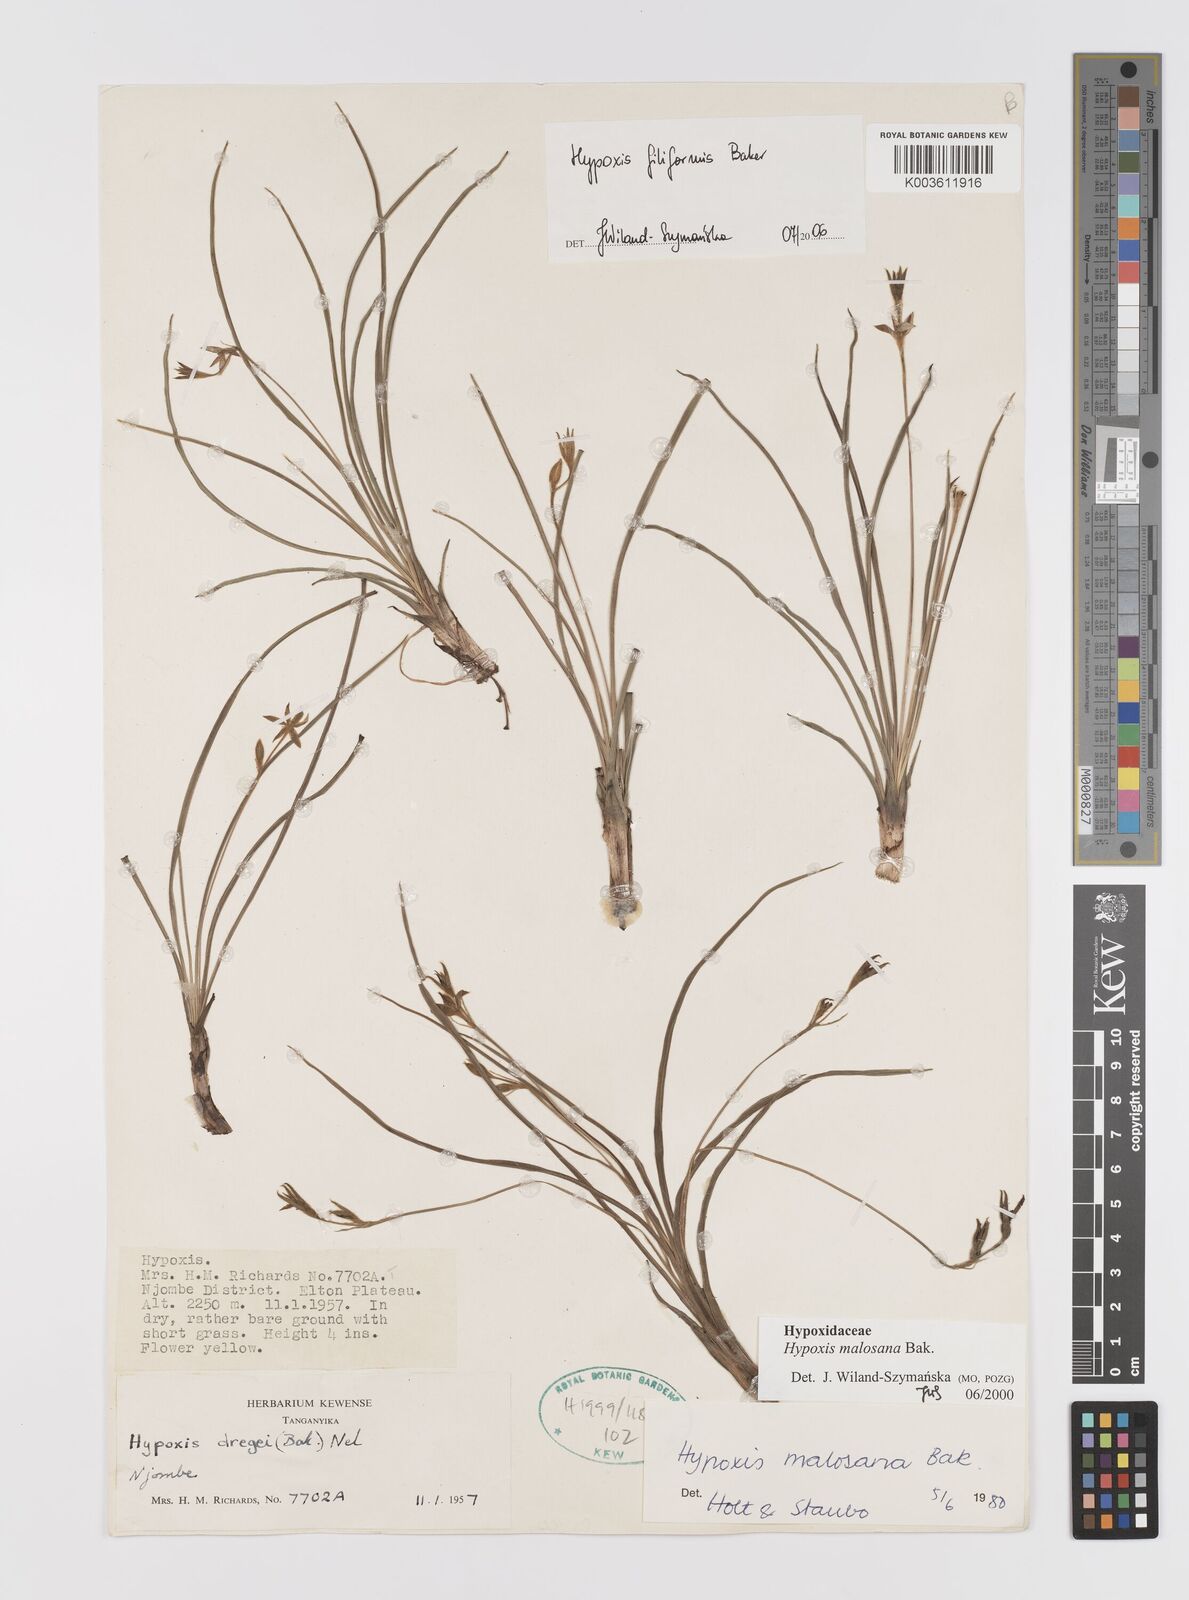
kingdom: Plantae
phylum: Tracheophyta
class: Liliopsida
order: Asparagales
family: Hypoxidaceae
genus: Hypoxis
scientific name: Hypoxis filiformis
